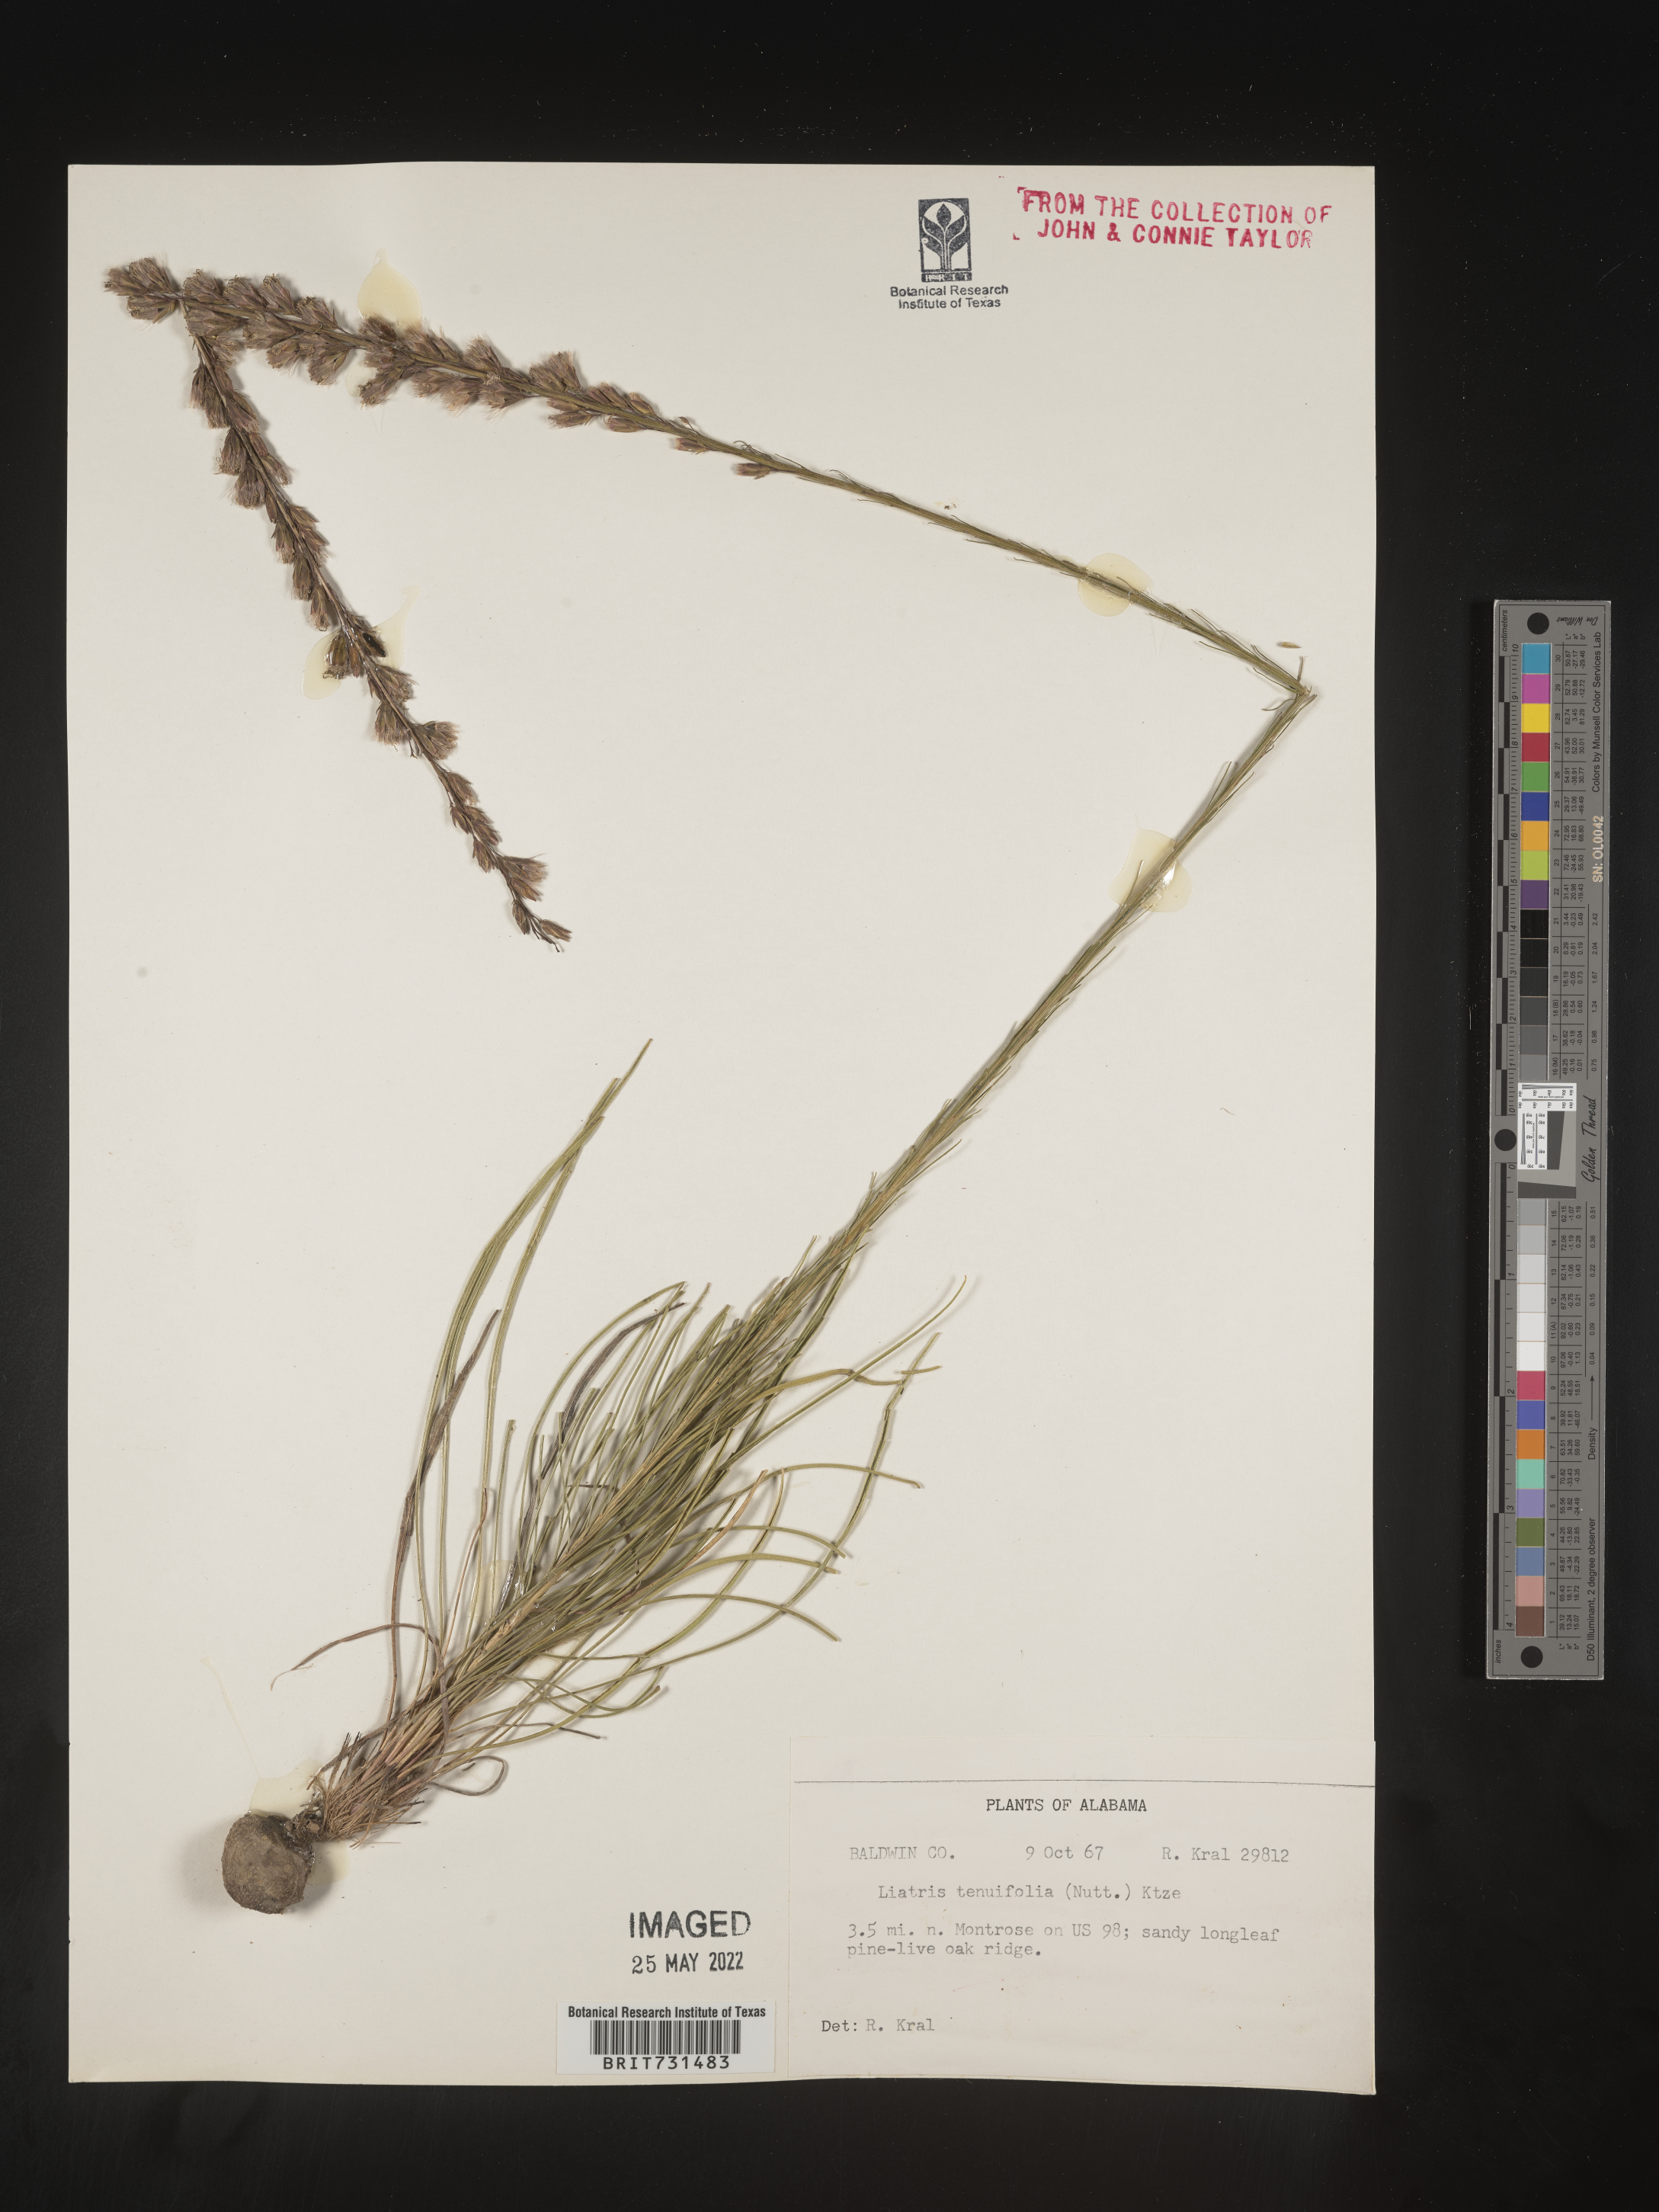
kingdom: Plantae
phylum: Tracheophyta
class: Magnoliopsida
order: Asterales
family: Asteraceae
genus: Liatris
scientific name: Liatris tenuifolia
